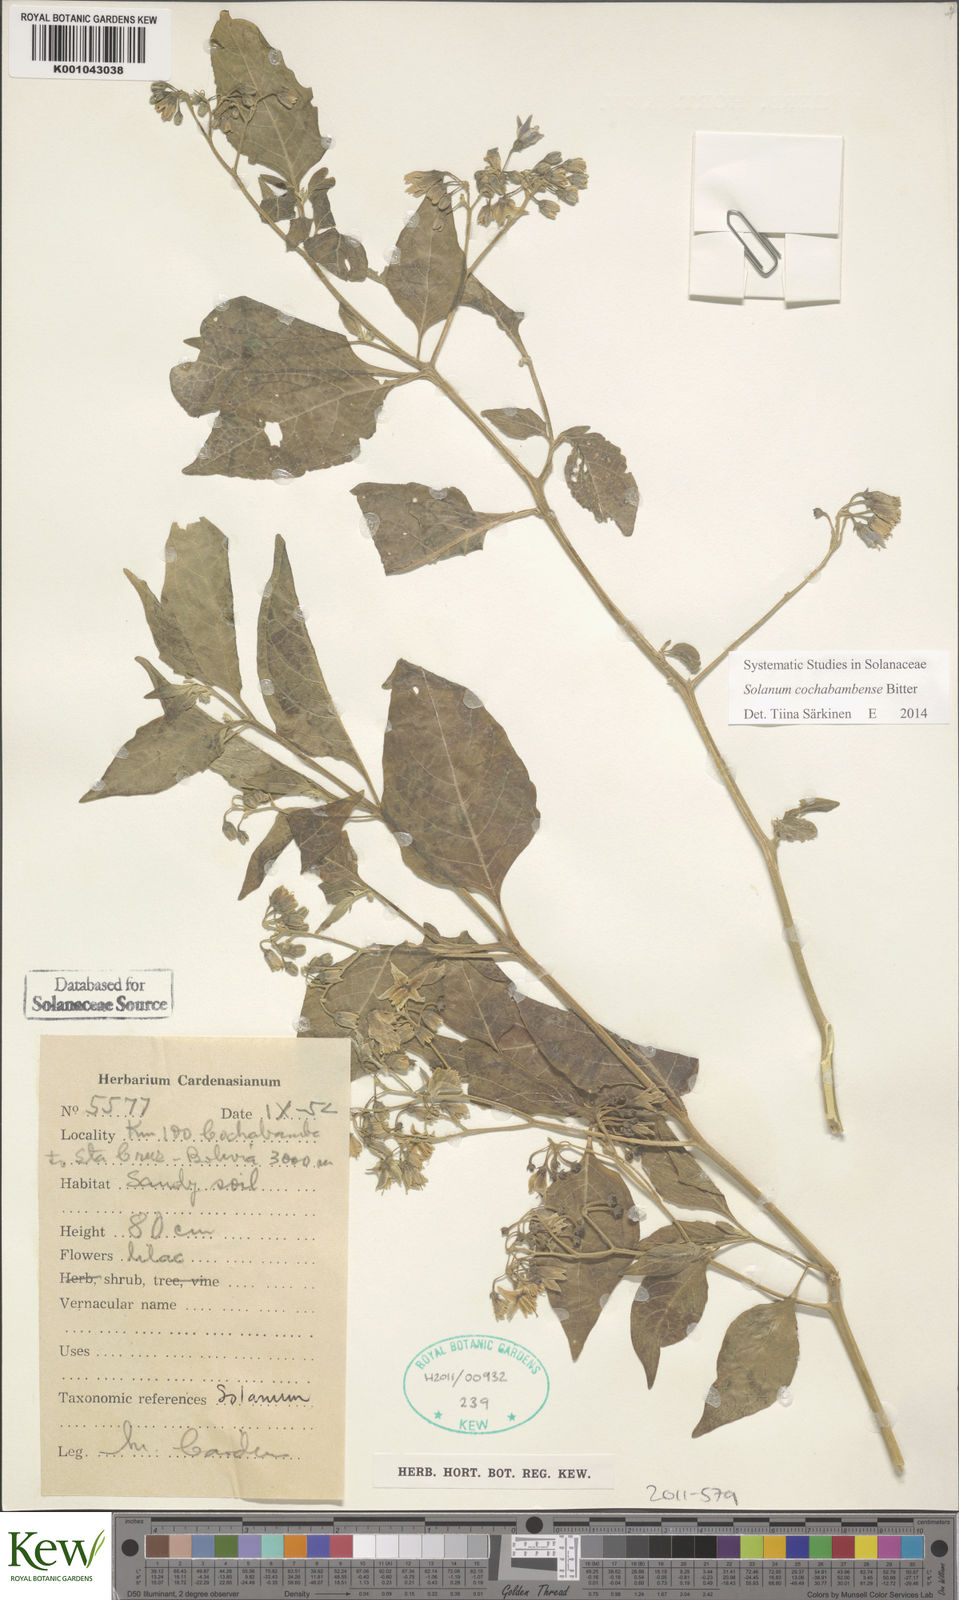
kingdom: Plantae
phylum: Tracheophyta
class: Magnoliopsida
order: Solanales
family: Solanaceae
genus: Solanum
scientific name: Solanum probolospermum
